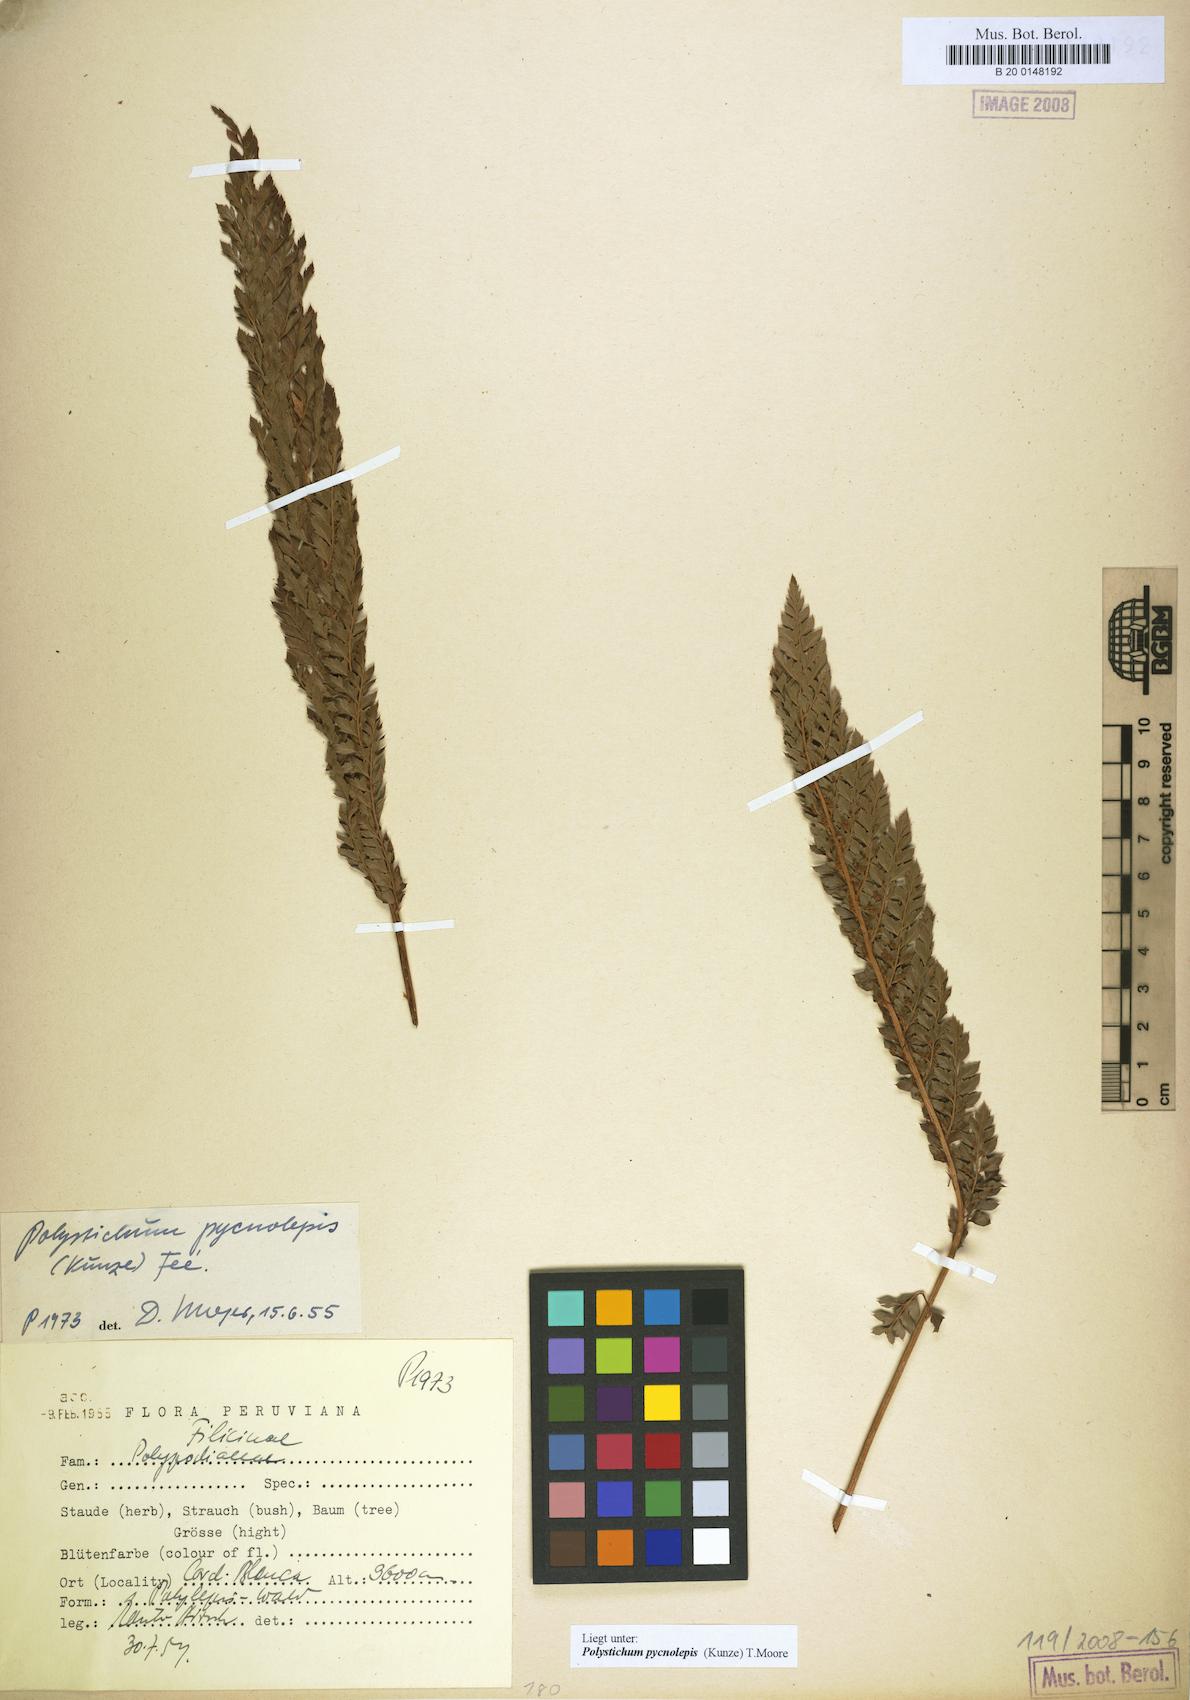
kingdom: Plantae
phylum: Tracheophyta
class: Polypodiopsida
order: Polypodiales
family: Dryopteridaceae
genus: Polystichum
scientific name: Polystichum pycnolepis
